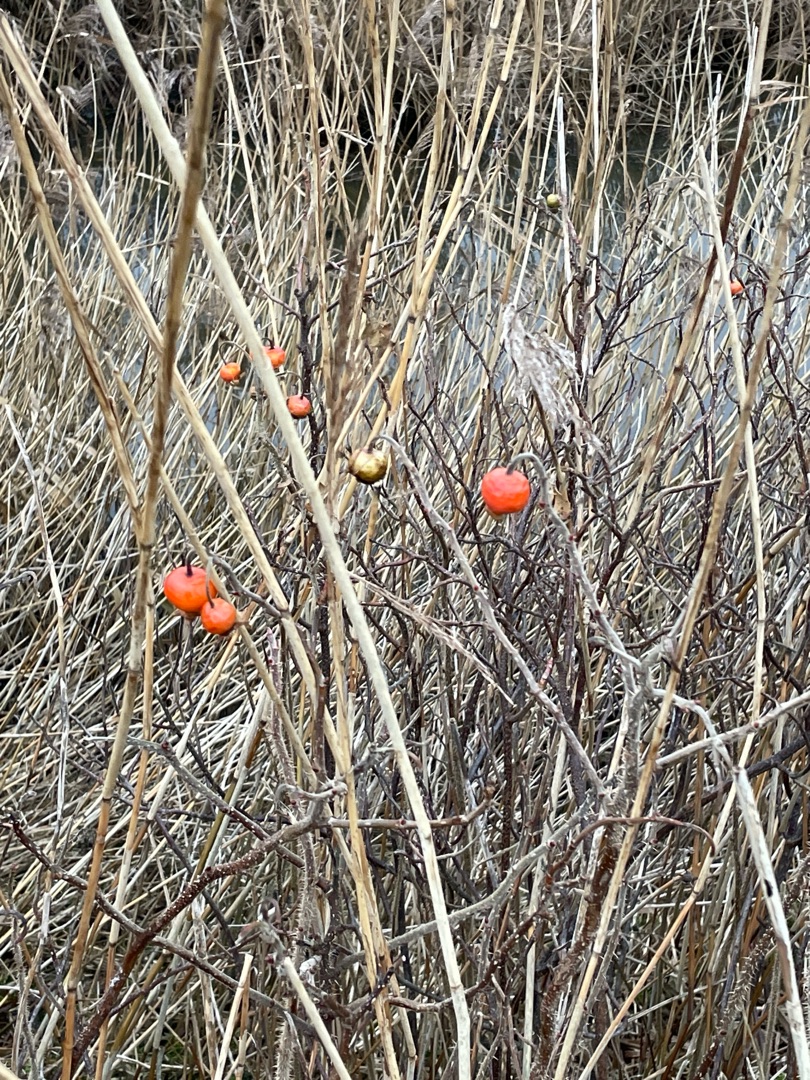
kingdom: Plantae
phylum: Tracheophyta
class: Magnoliopsida
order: Rosales
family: Rosaceae
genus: Rosa
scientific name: Rosa rugosa
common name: Rynket rose
